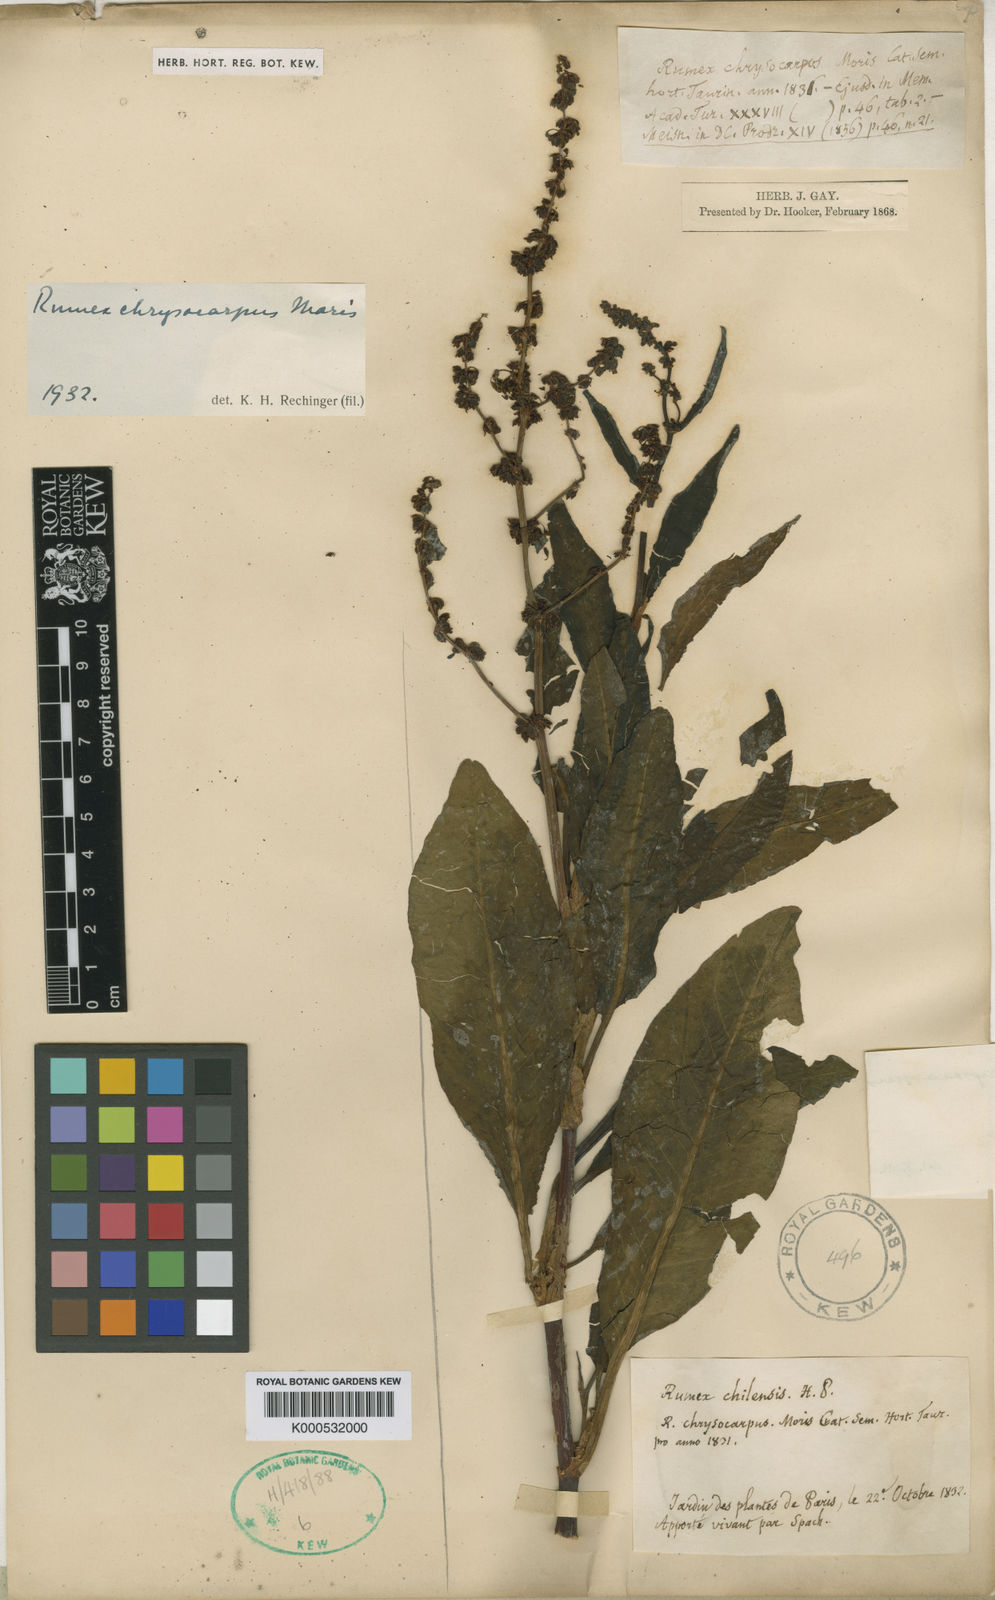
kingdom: Plantae
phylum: Tracheophyta
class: Magnoliopsida
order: Caryophyllales
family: Polygonaceae
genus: Rumex
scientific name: Rumex
